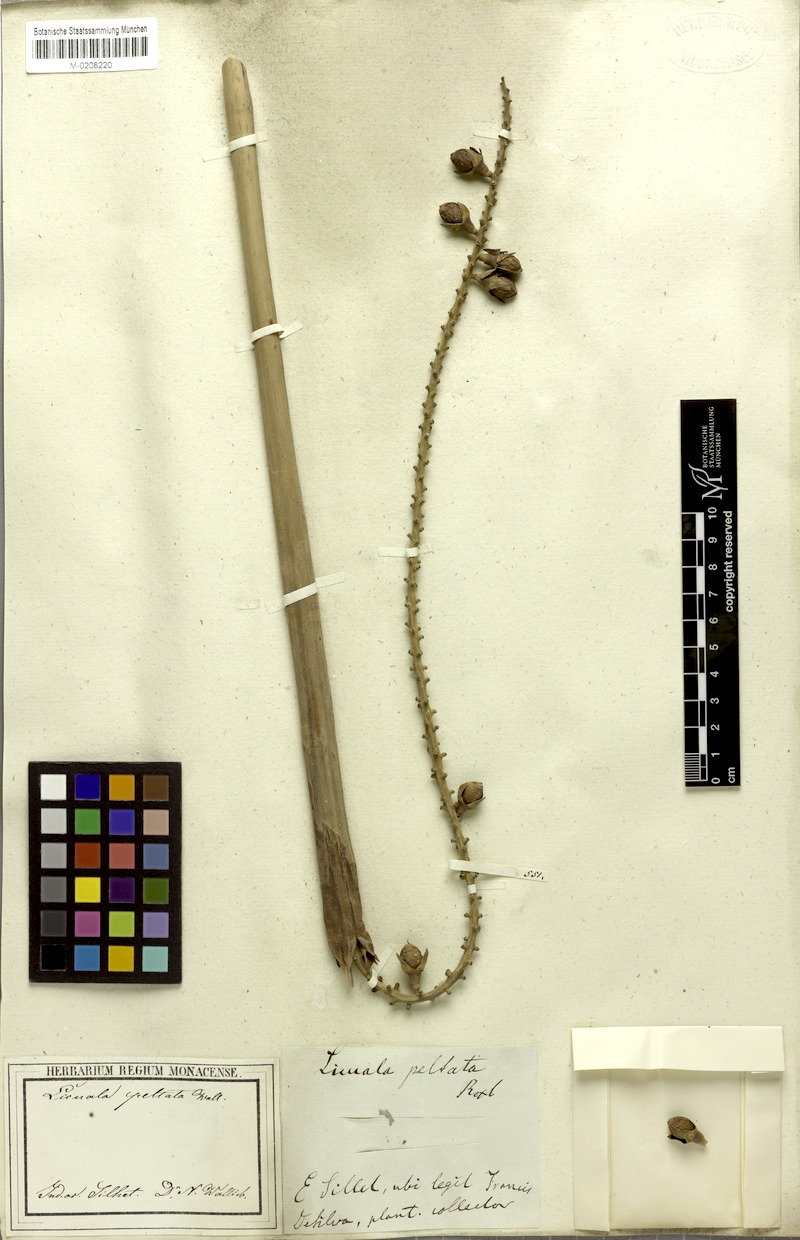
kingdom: Plantae
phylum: Tracheophyta
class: Liliopsida
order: Arecales
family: Arecaceae
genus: Licuala
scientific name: Licuala peltata
